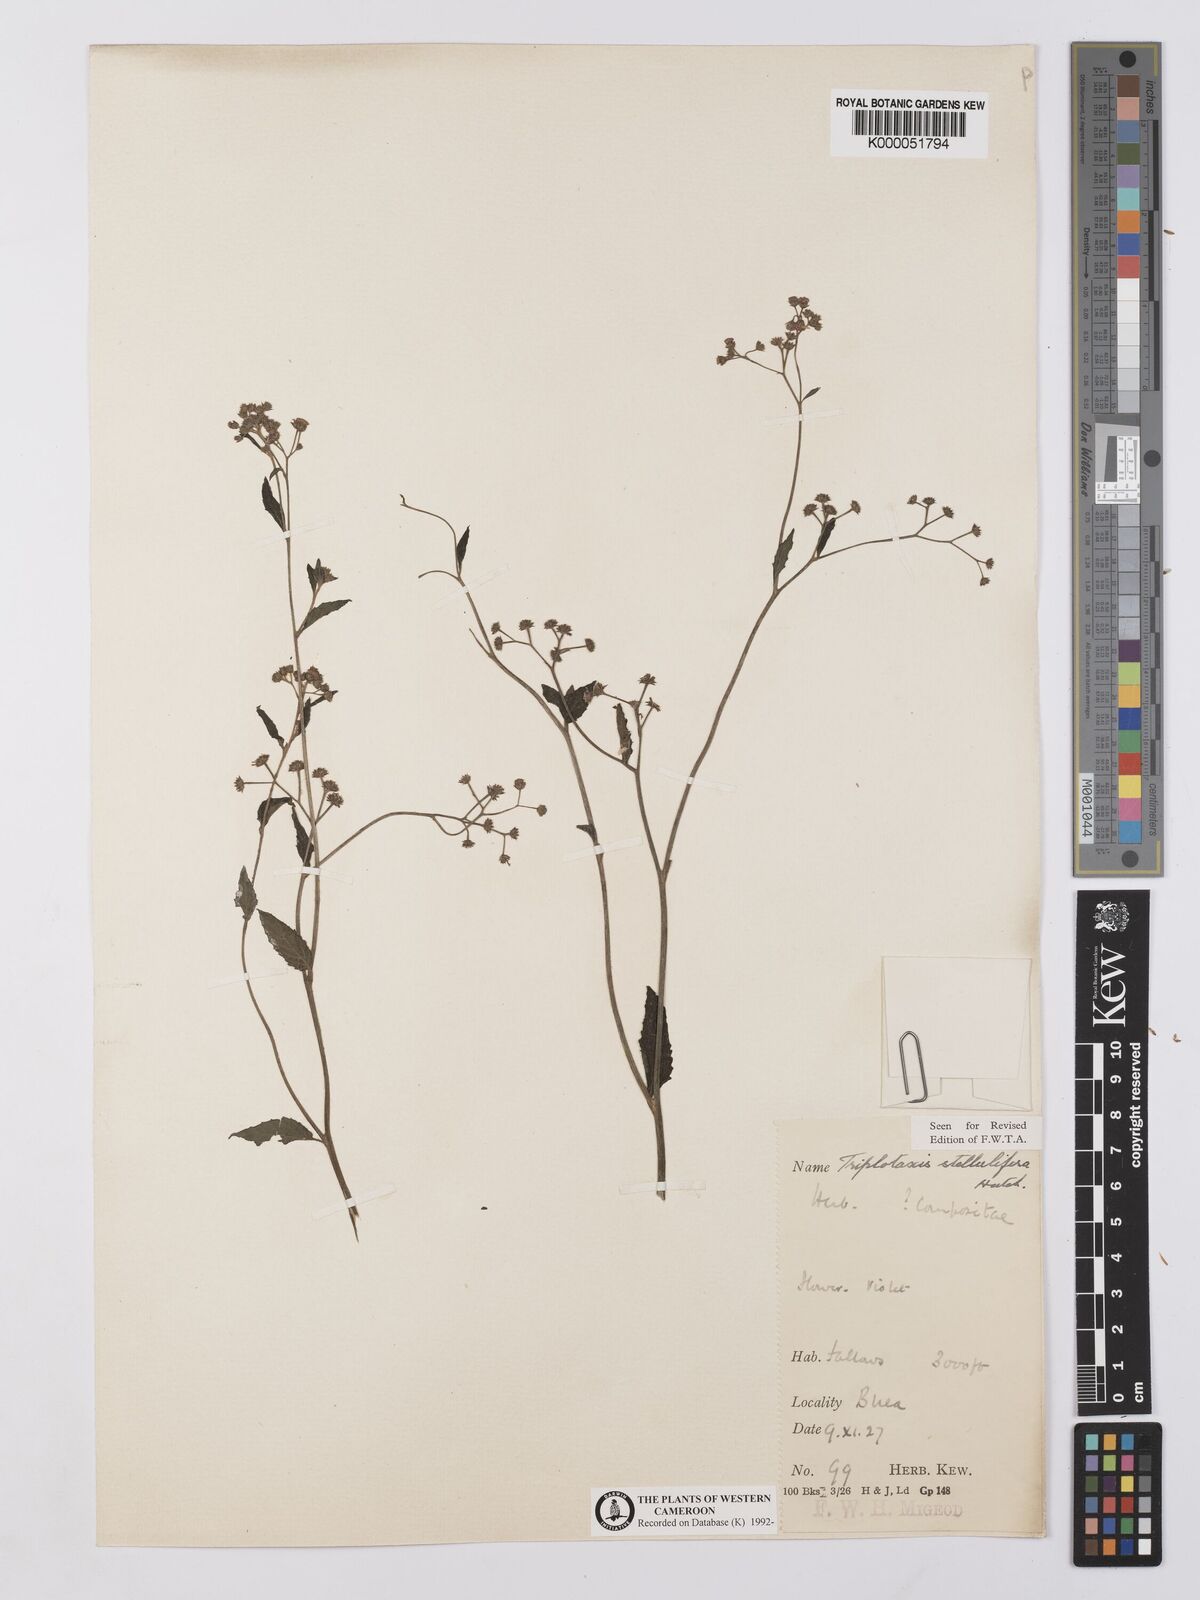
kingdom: Plantae
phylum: Tracheophyta
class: Magnoliopsida
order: Asterales
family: Asteraceae
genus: Cyanthillium
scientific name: Cyanthillium stelluliferum
